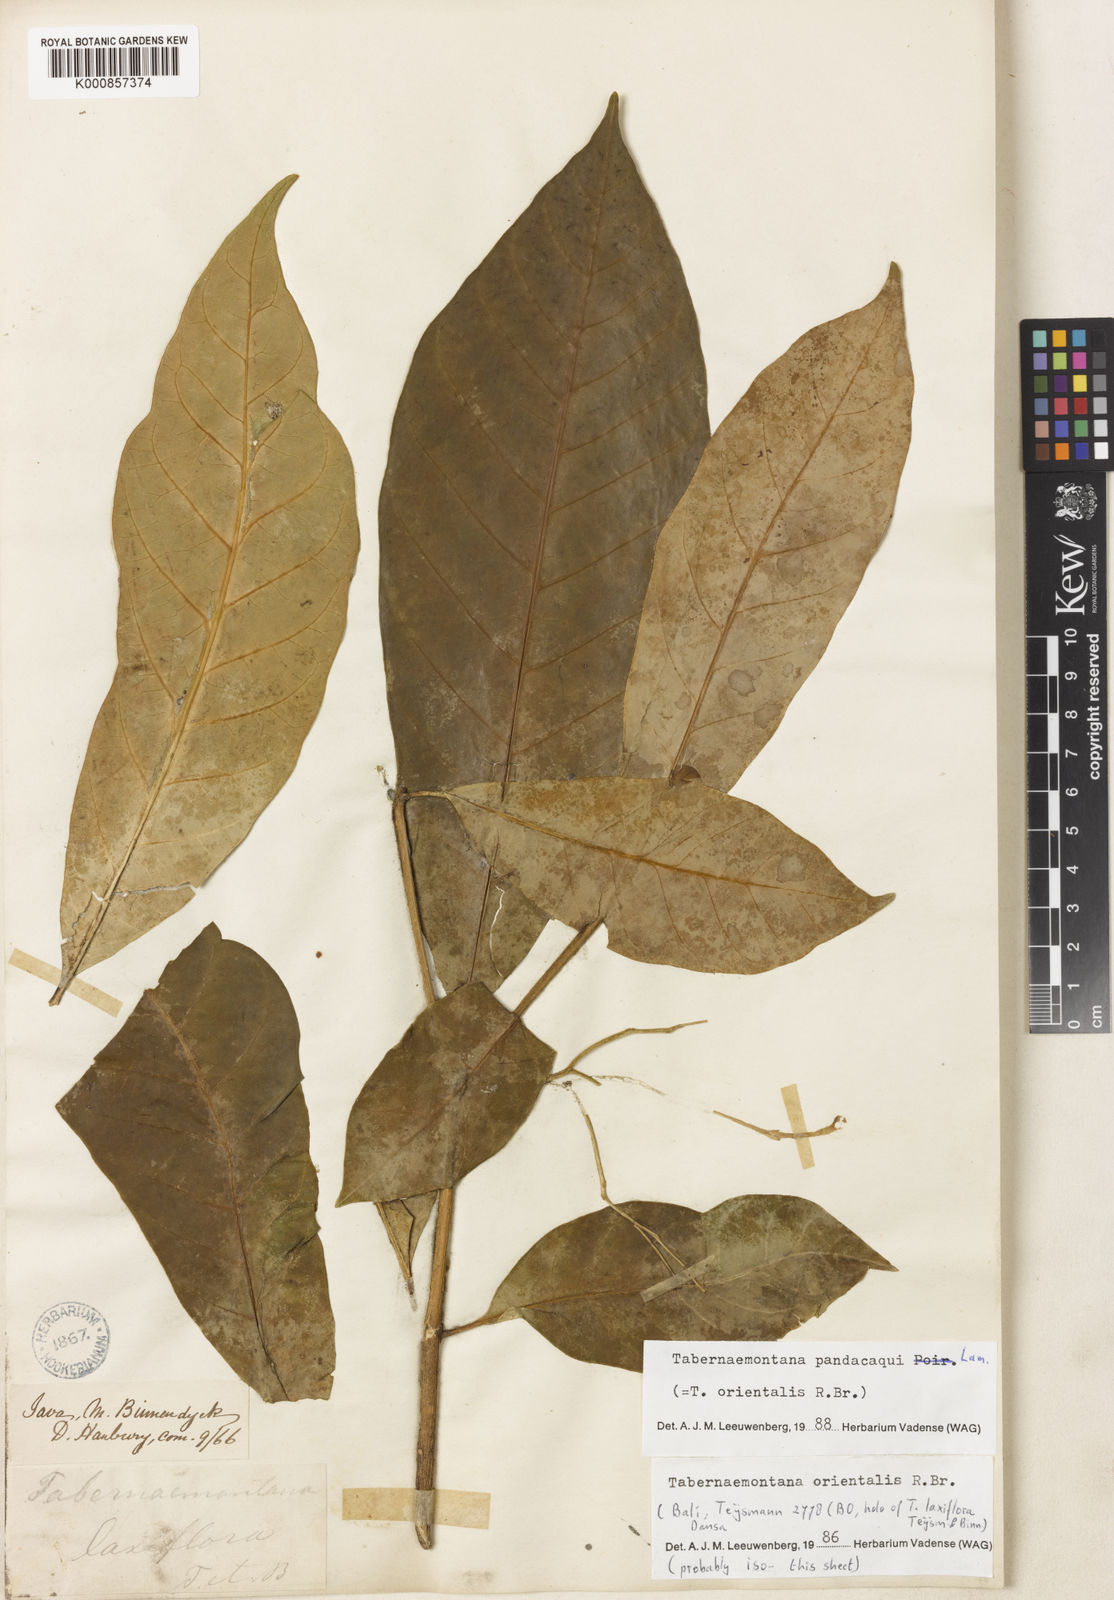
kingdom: Plantae
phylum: Tracheophyta
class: Magnoliopsida
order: Gentianales
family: Apocynaceae
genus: Tabernaemontana
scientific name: Tabernaemontana
